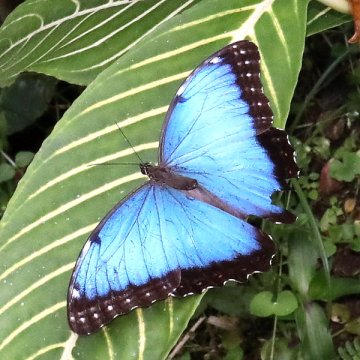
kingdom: Animalia
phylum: Arthropoda
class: Insecta
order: Lepidoptera
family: Nymphalidae
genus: Morpho
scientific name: Morpho deidamia
